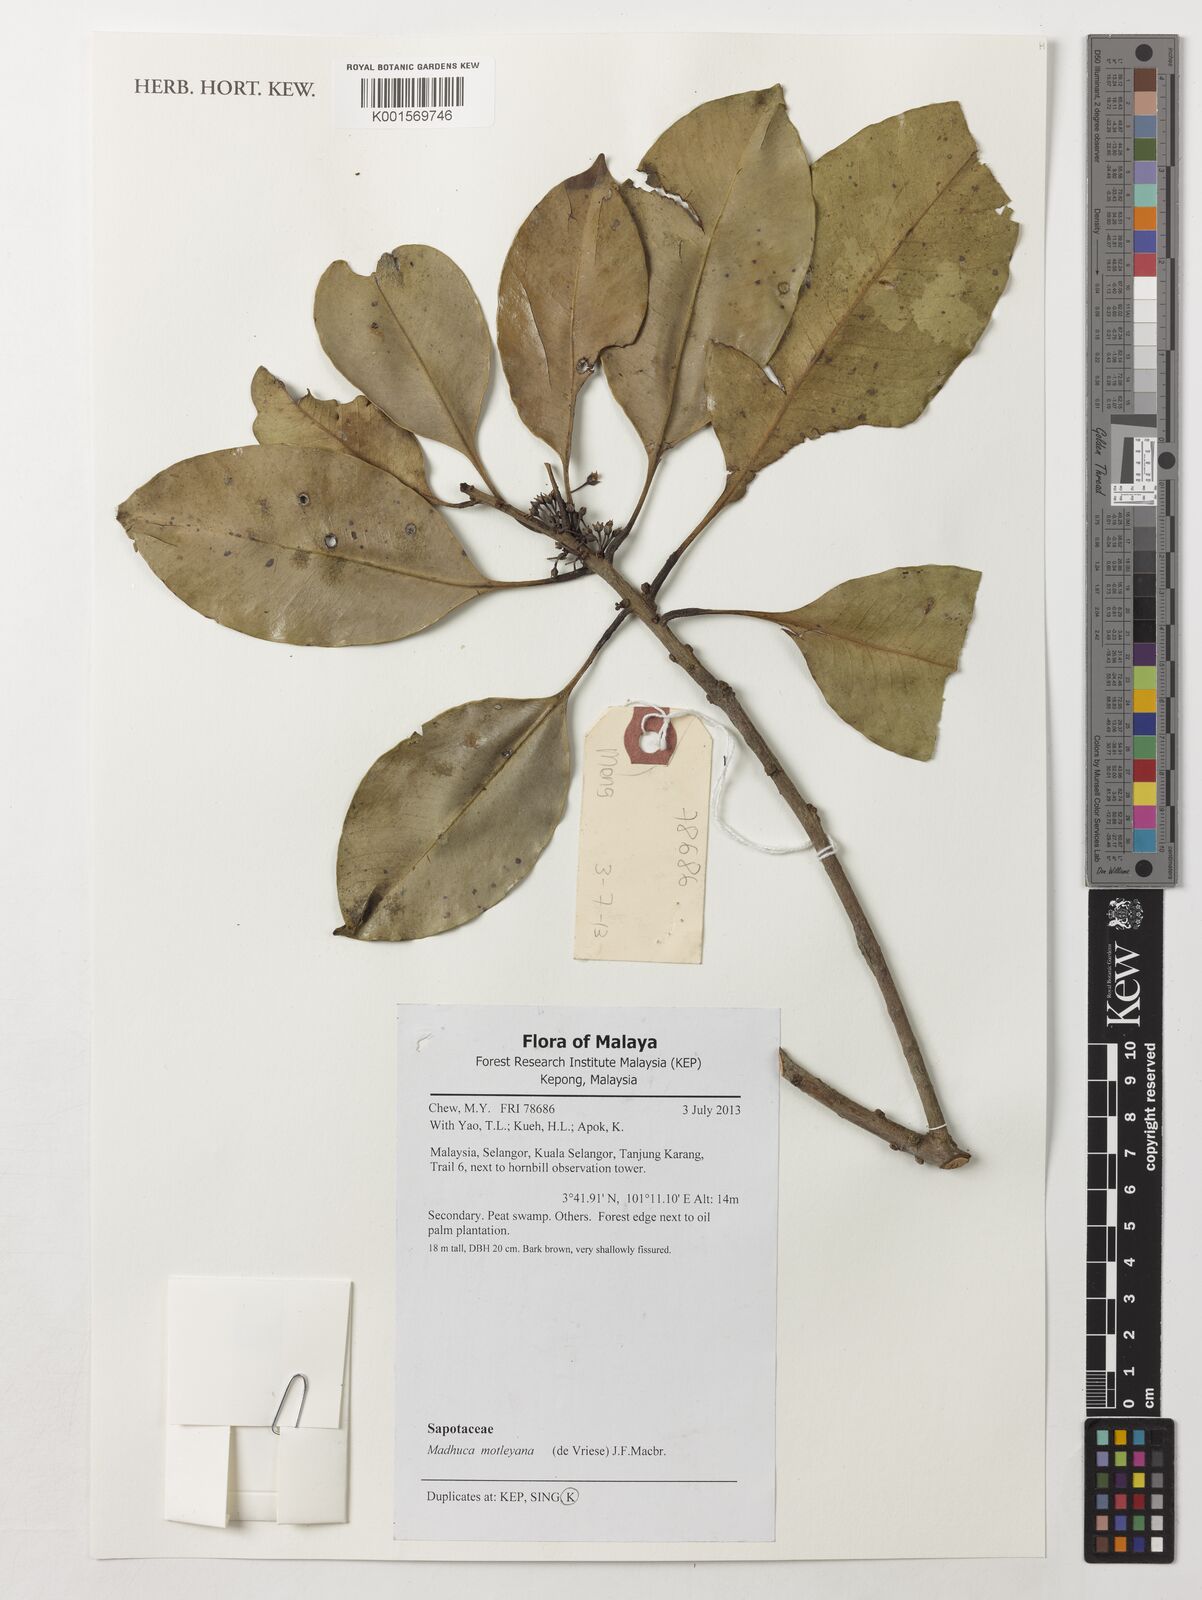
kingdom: Plantae
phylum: Tracheophyta
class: Magnoliopsida
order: Ericales
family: Sapotaceae
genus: Madhuca
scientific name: Madhuca motleyana
